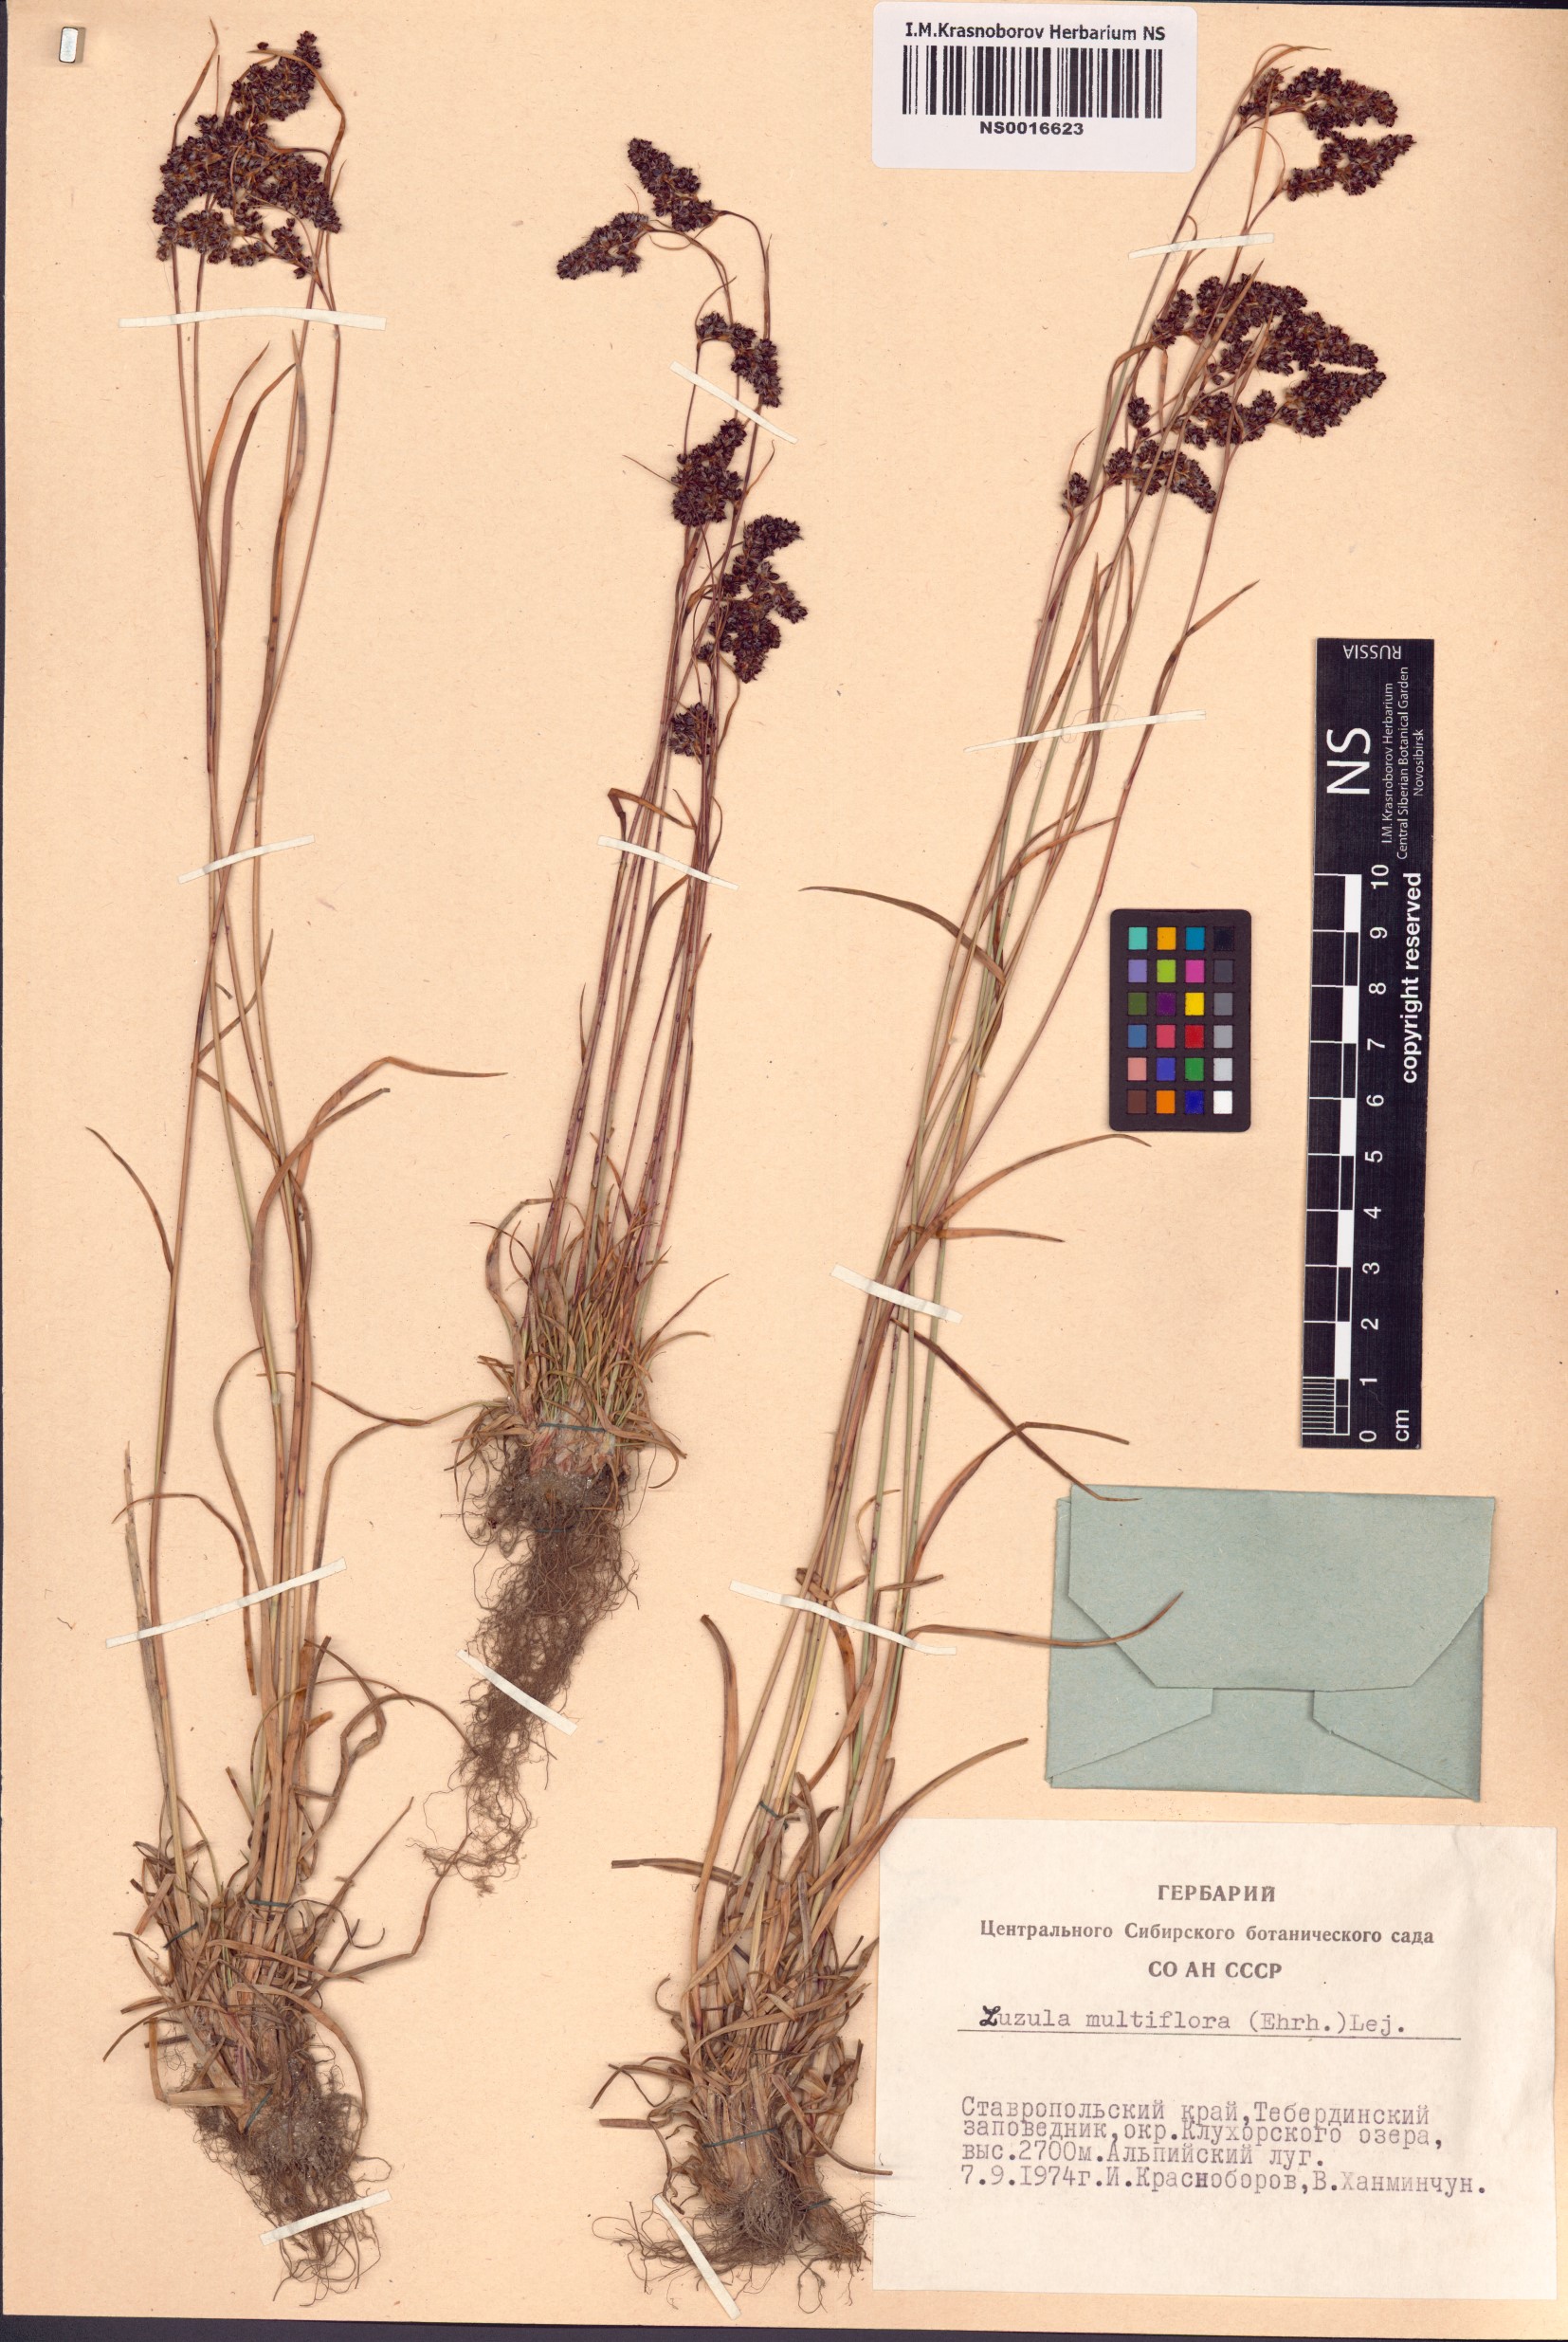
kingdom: Plantae
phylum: Tracheophyta
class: Liliopsida
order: Poales
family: Juncaceae
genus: Luzula
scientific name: Luzula multiflora
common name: Heath wood-rush
